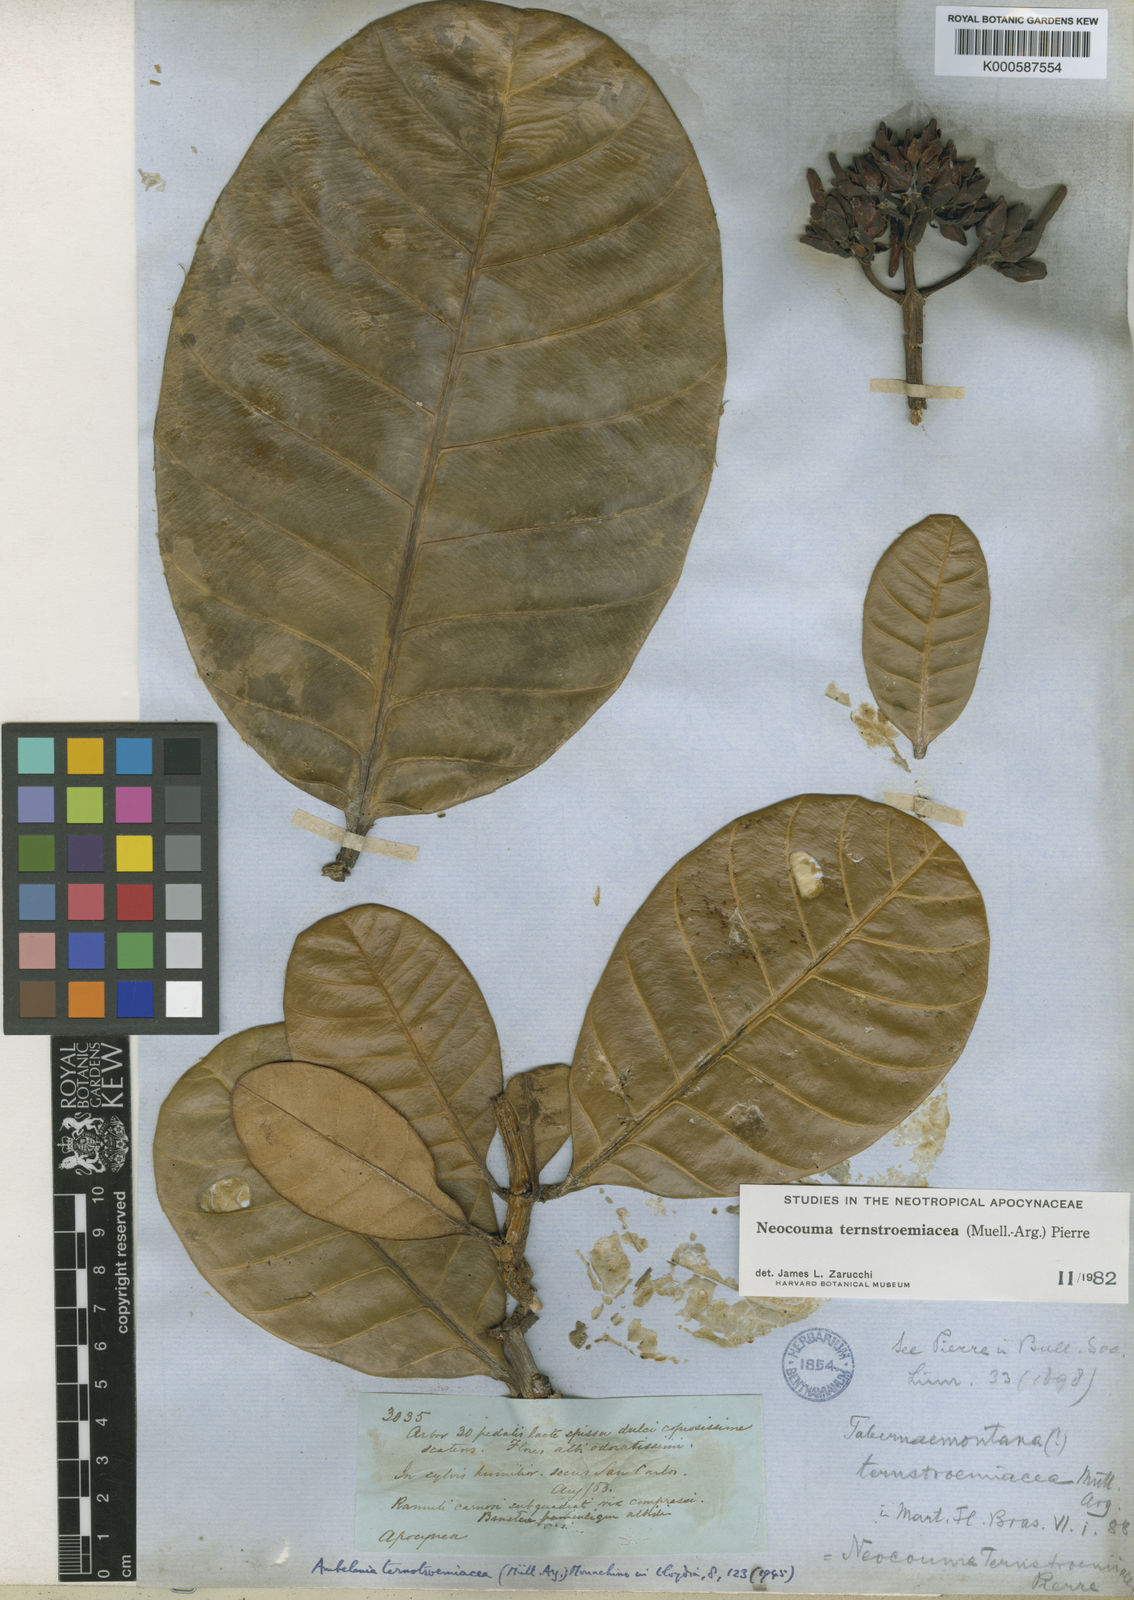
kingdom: Plantae
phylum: Tracheophyta
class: Magnoliopsida
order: Gentianales
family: Apocynaceae
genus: Neocouma
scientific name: Neocouma
